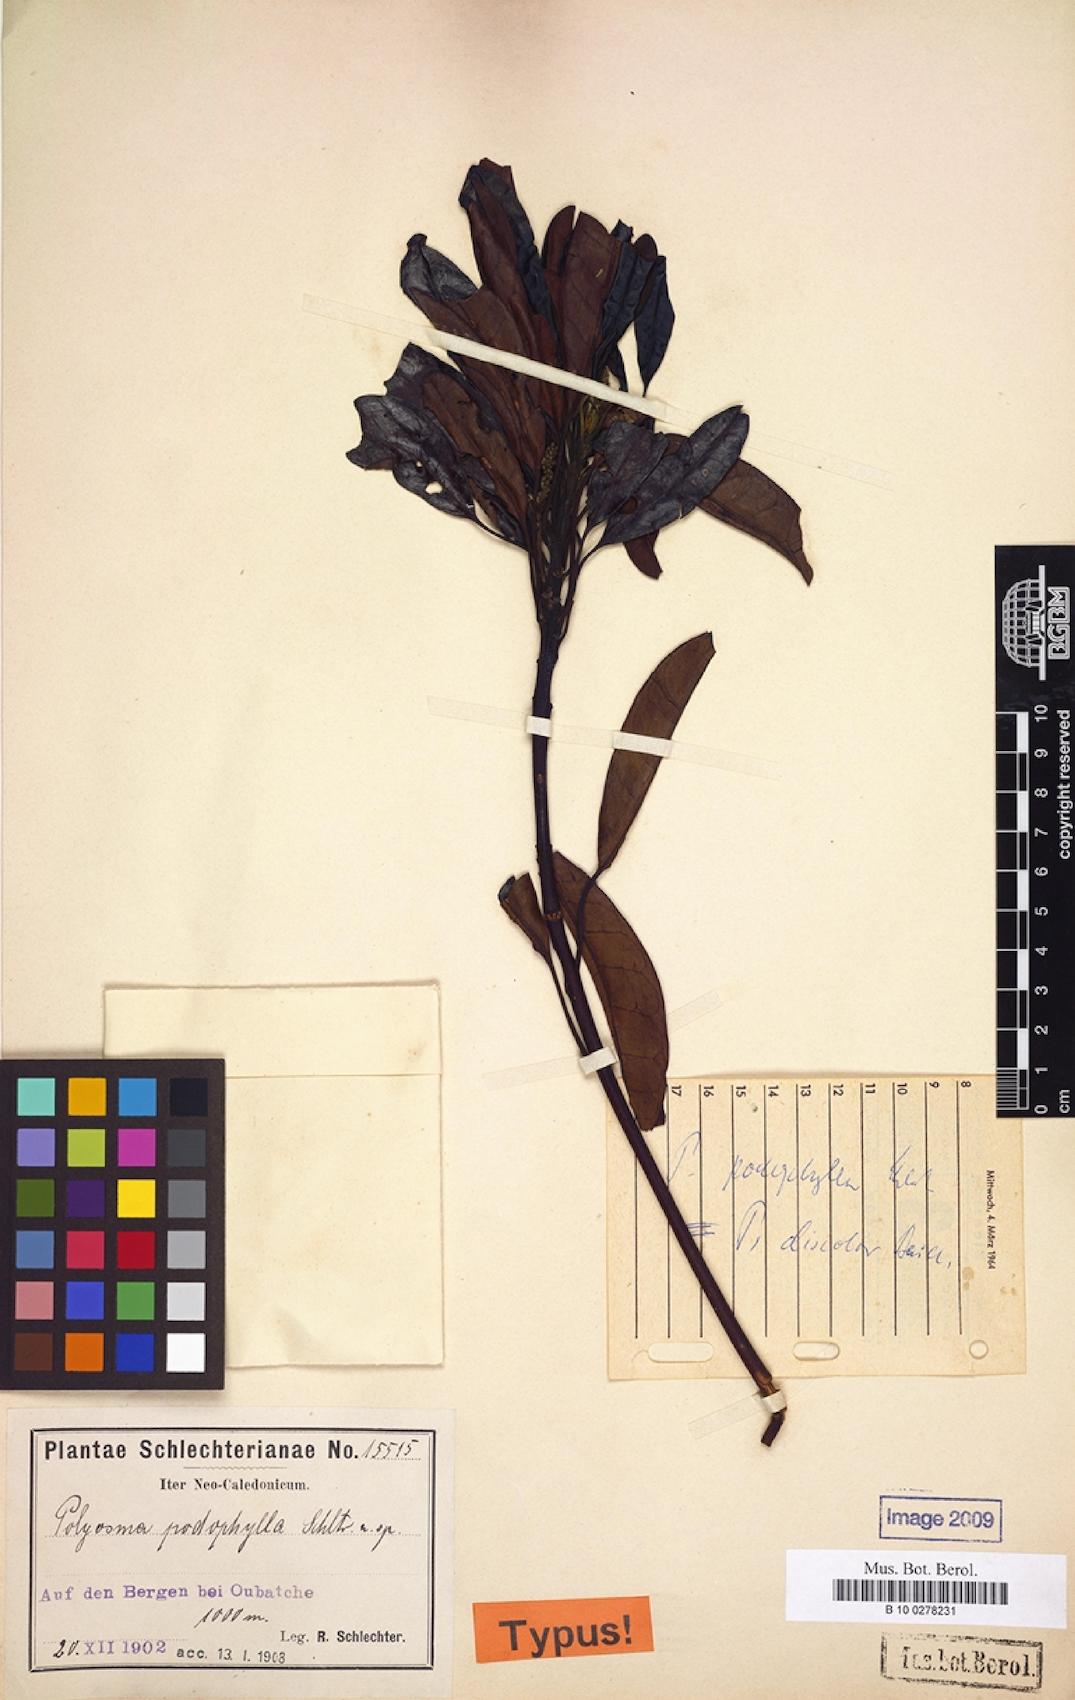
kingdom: Plantae
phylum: Tracheophyta
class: Magnoliopsida
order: Escalloniales
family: Escalloniaceae
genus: Polyosma
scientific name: Polyosma discolor
